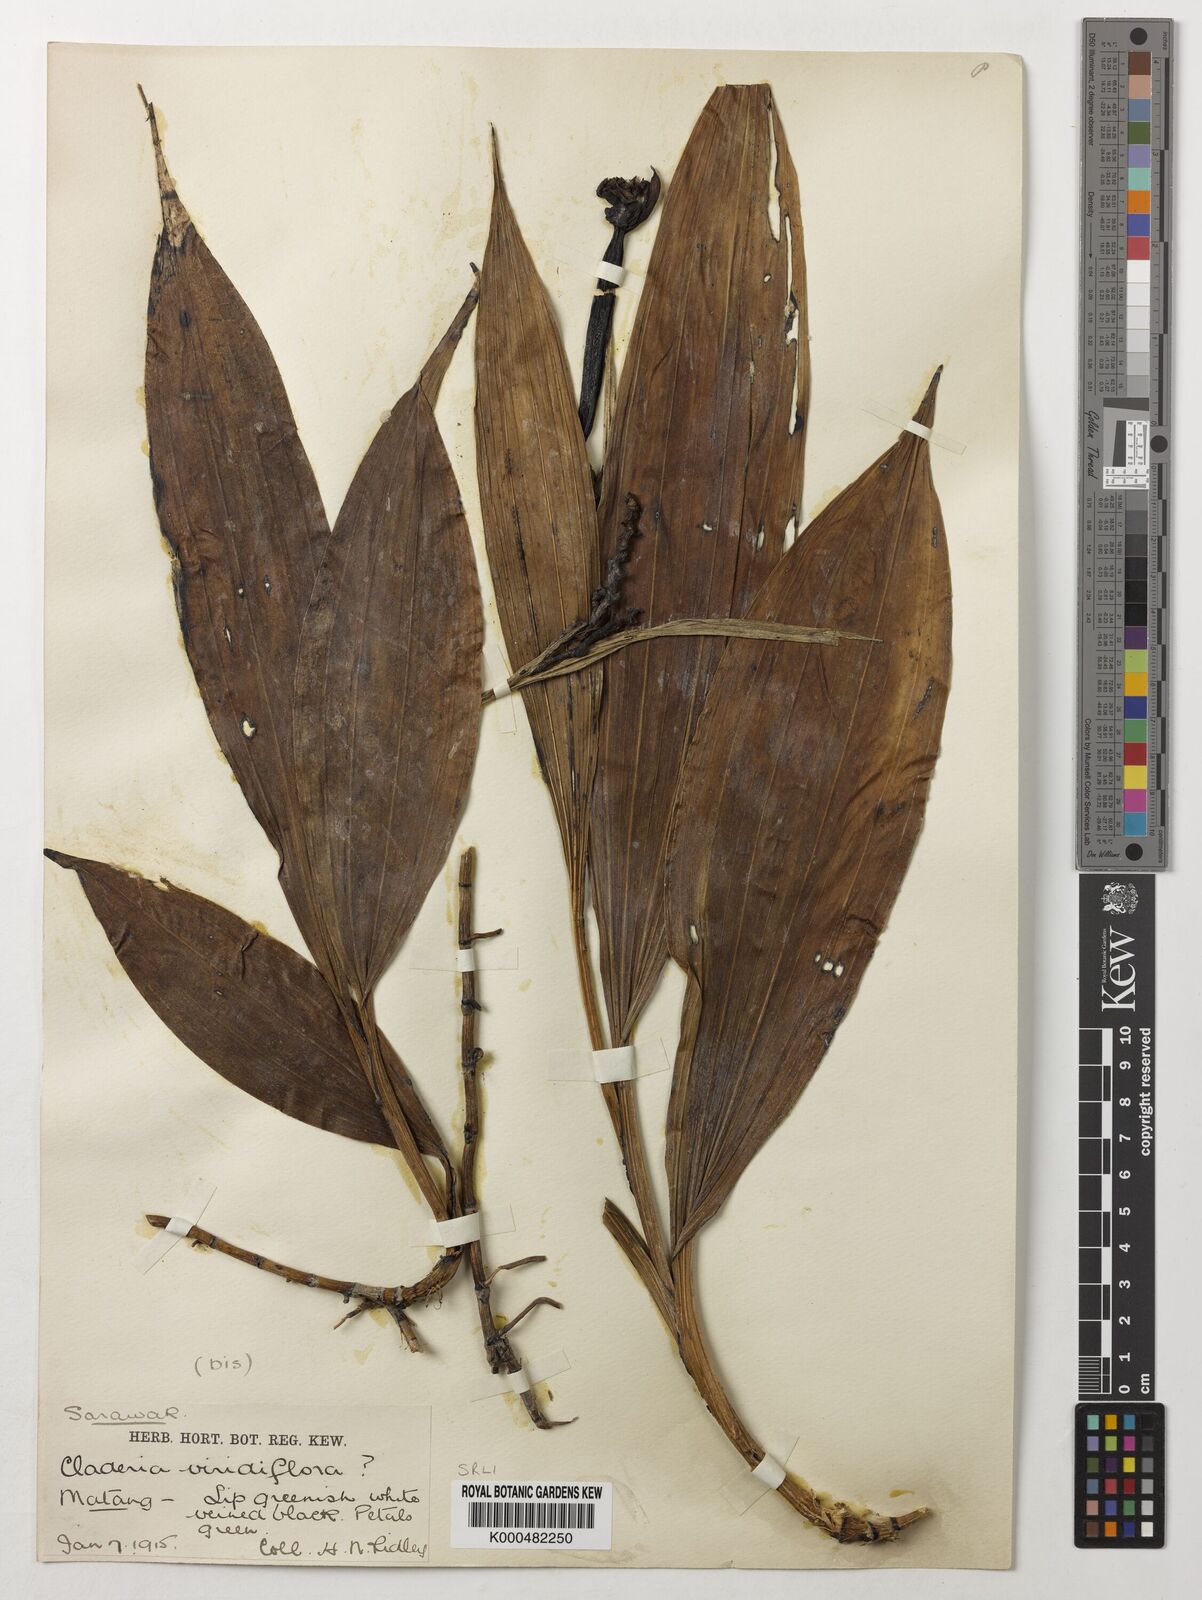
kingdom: Plantae
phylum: Tracheophyta
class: Liliopsida
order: Asparagales
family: Orchidaceae
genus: Claderia
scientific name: Claderia
